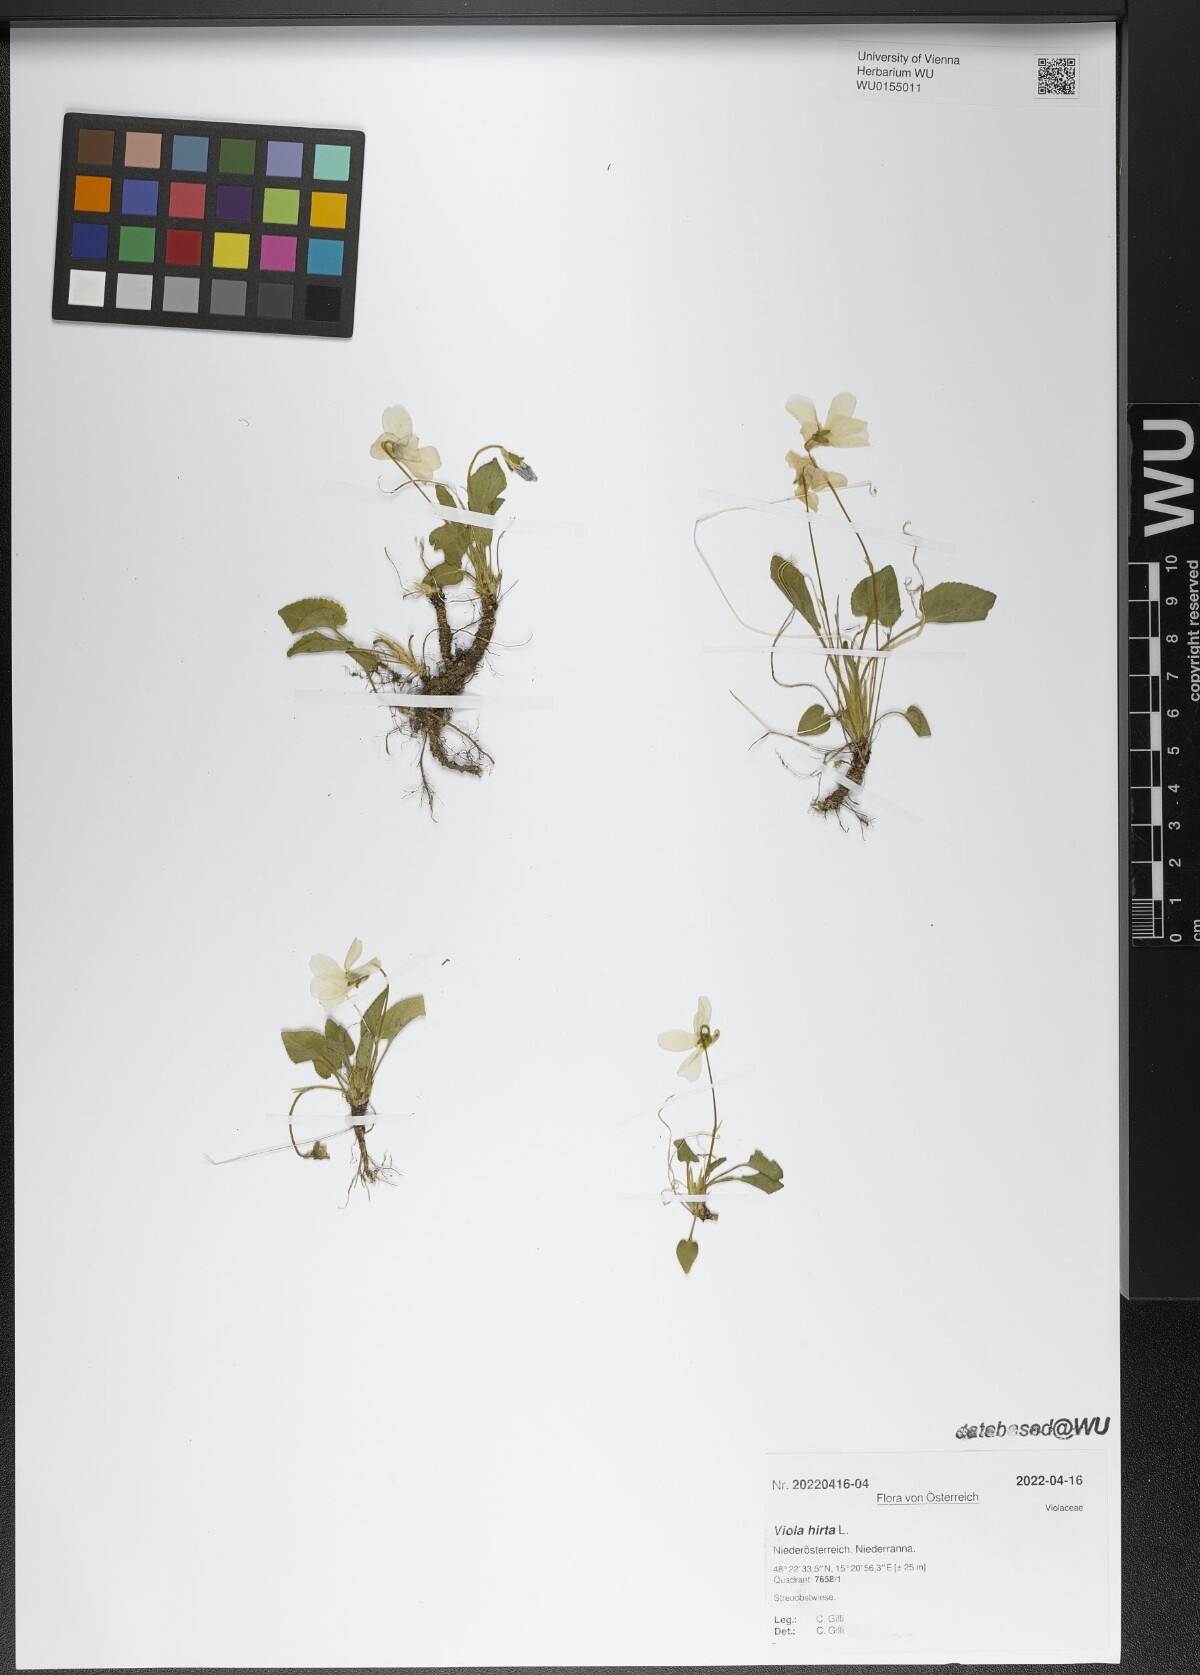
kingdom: Plantae
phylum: Tracheophyta
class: Magnoliopsida
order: Malpighiales
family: Violaceae
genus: Viola
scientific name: Viola hirta
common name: Hairy violet
